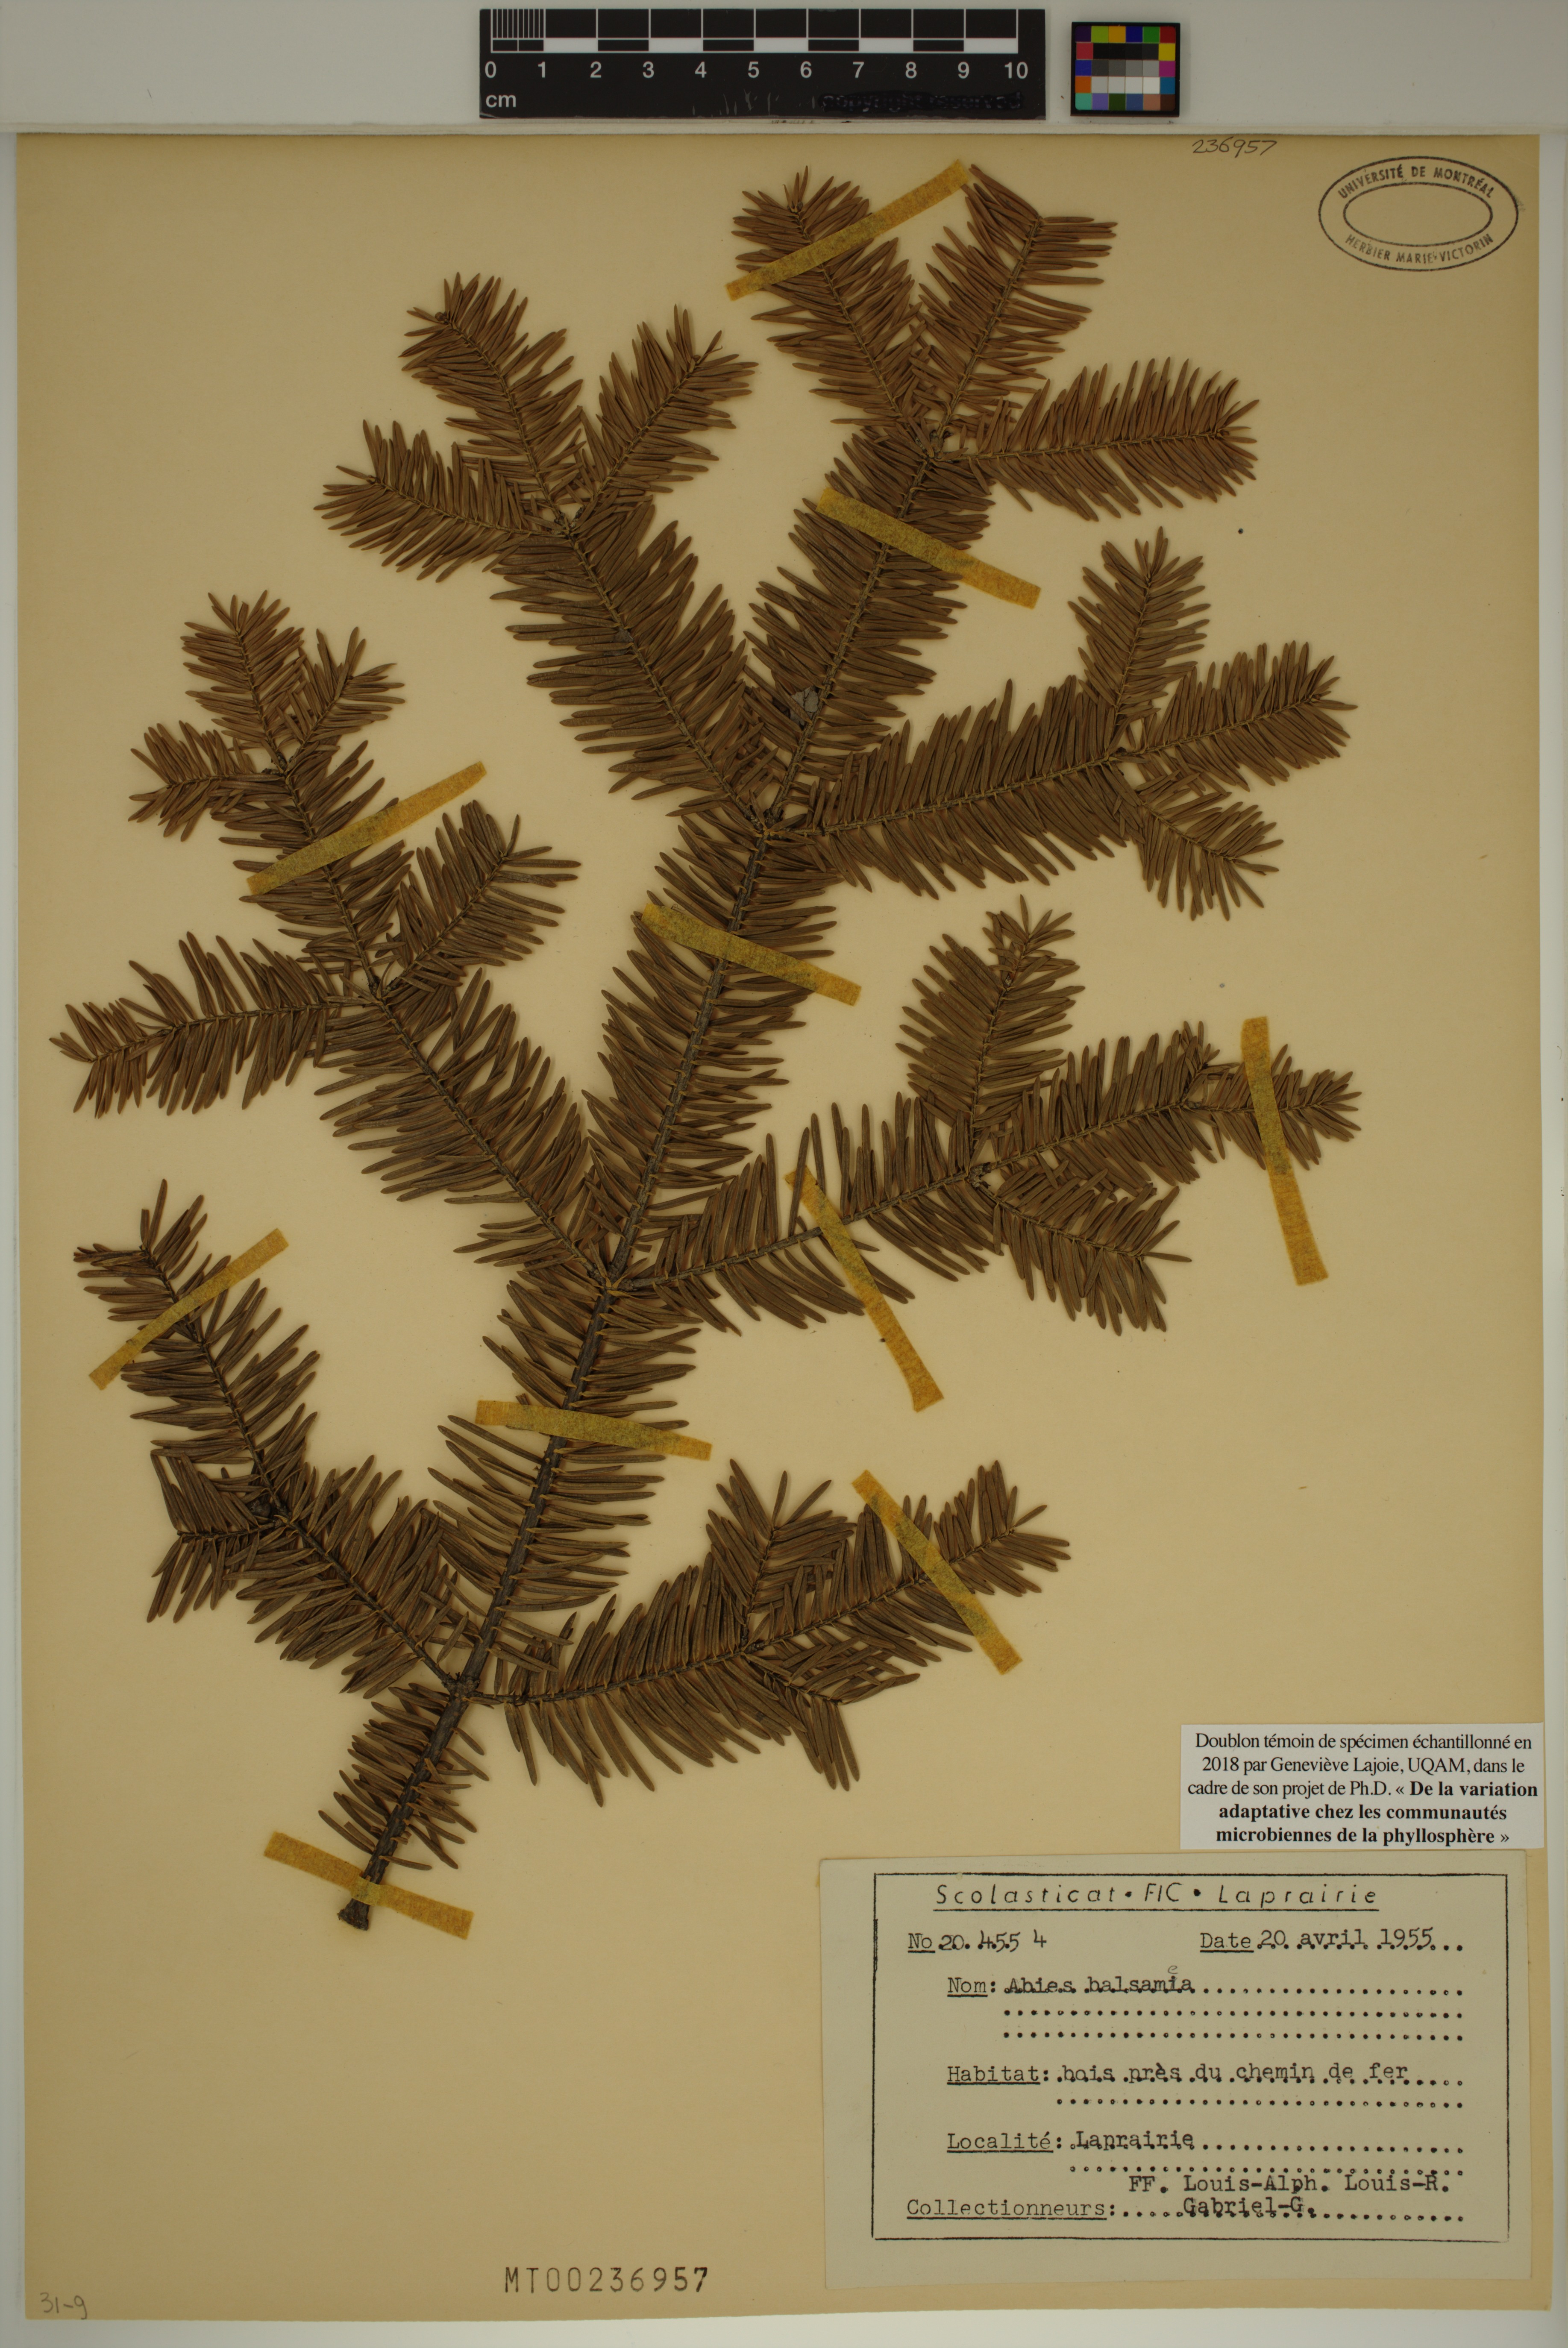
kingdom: Plantae
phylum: Tracheophyta
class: Pinopsida
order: Pinales
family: Pinaceae
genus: Abies
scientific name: Abies balsamea
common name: Balsam fir
